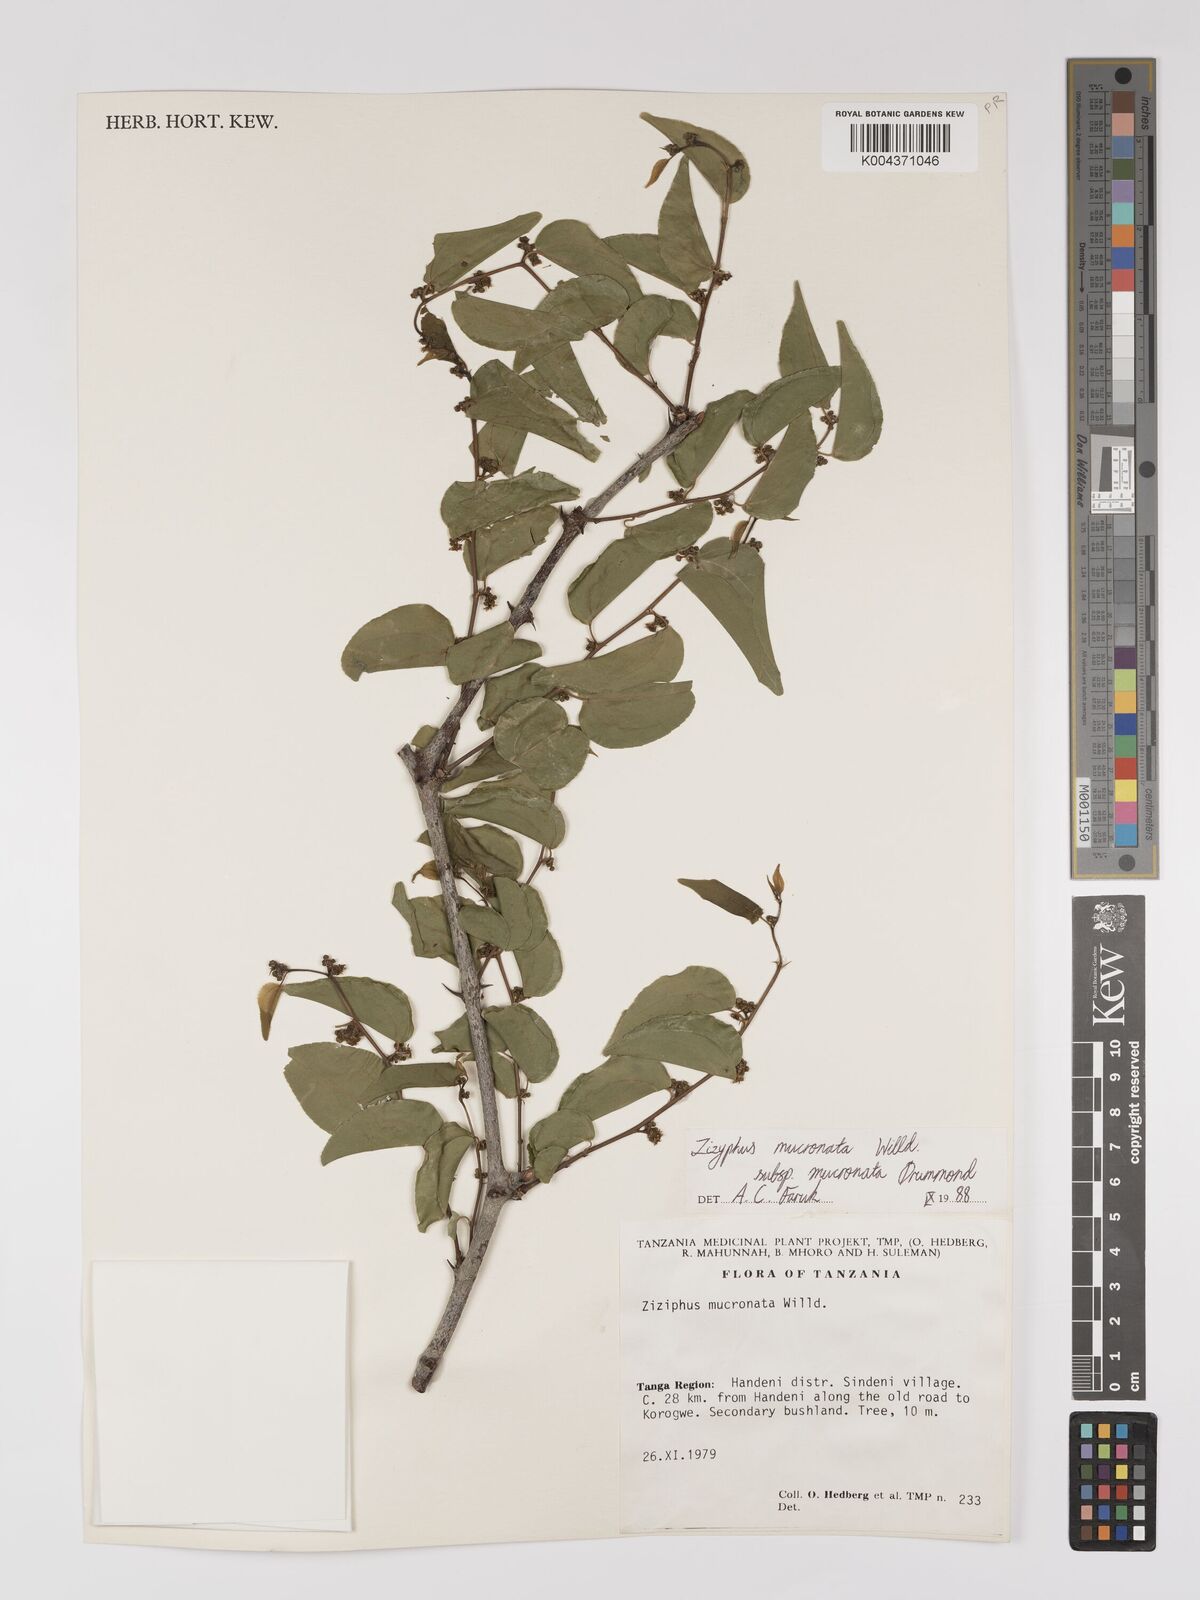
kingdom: Plantae
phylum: Tracheophyta
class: Magnoliopsida
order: Rosales
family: Rhamnaceae
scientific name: Rhamnaceae
